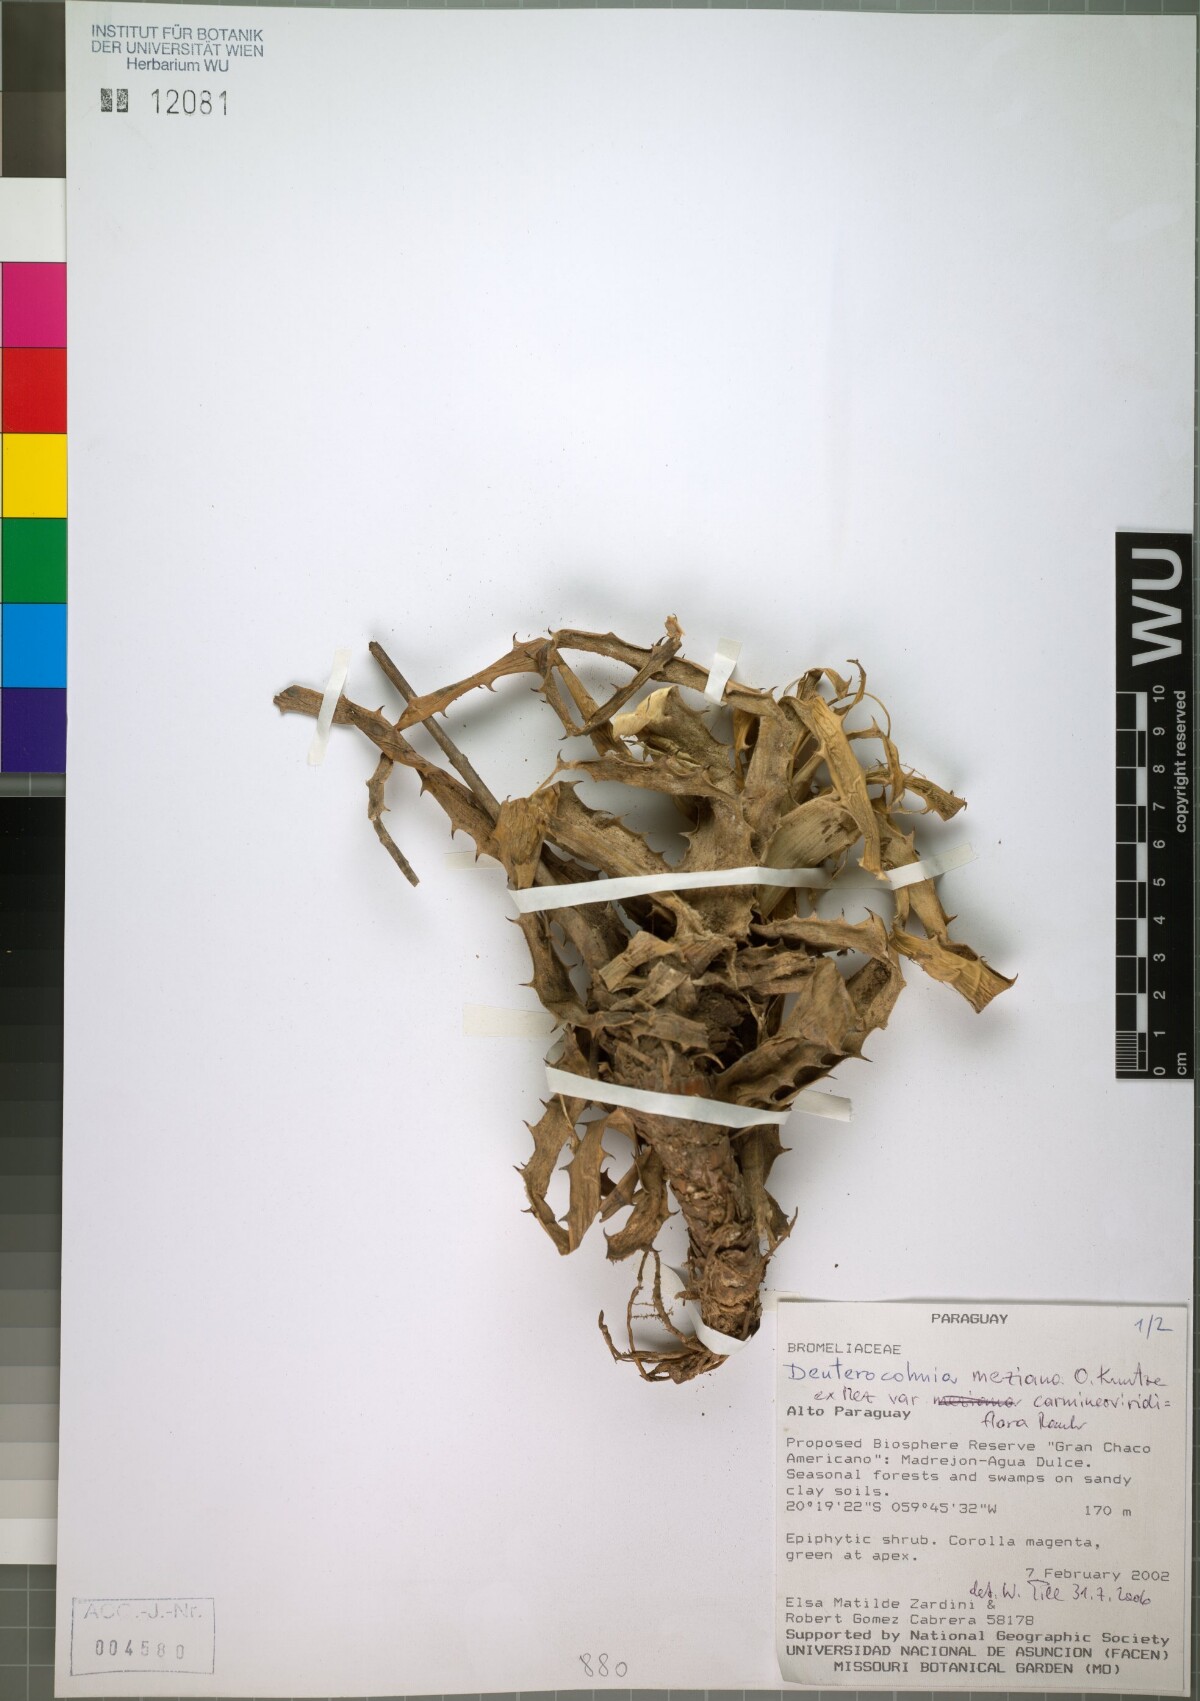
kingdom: Plantae
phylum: Tracheophyta
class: Liliopsida
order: Poales
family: Bromeliaceae
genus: Deuterocohnia
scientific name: Deuterocohnia meziana
